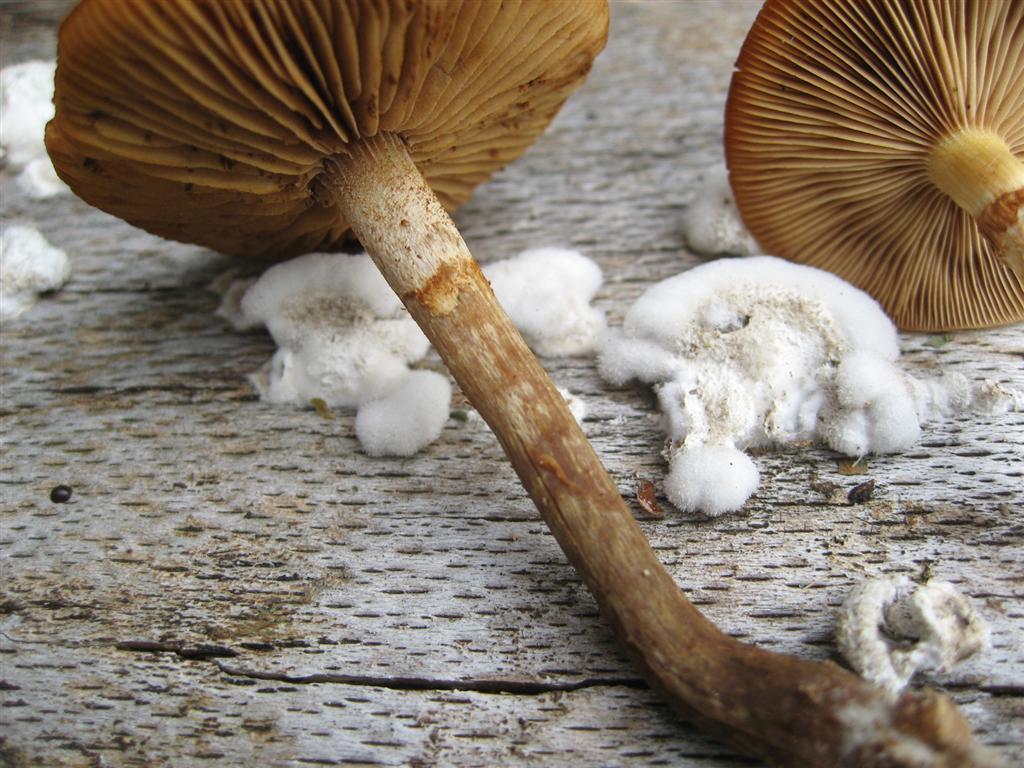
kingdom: Fungi
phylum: Basidiomycota
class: Agaricomycetes
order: Agaricales
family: Hymenogastraceae
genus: Galerina
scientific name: Galerina marginata
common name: randbæltet hjelmhat
